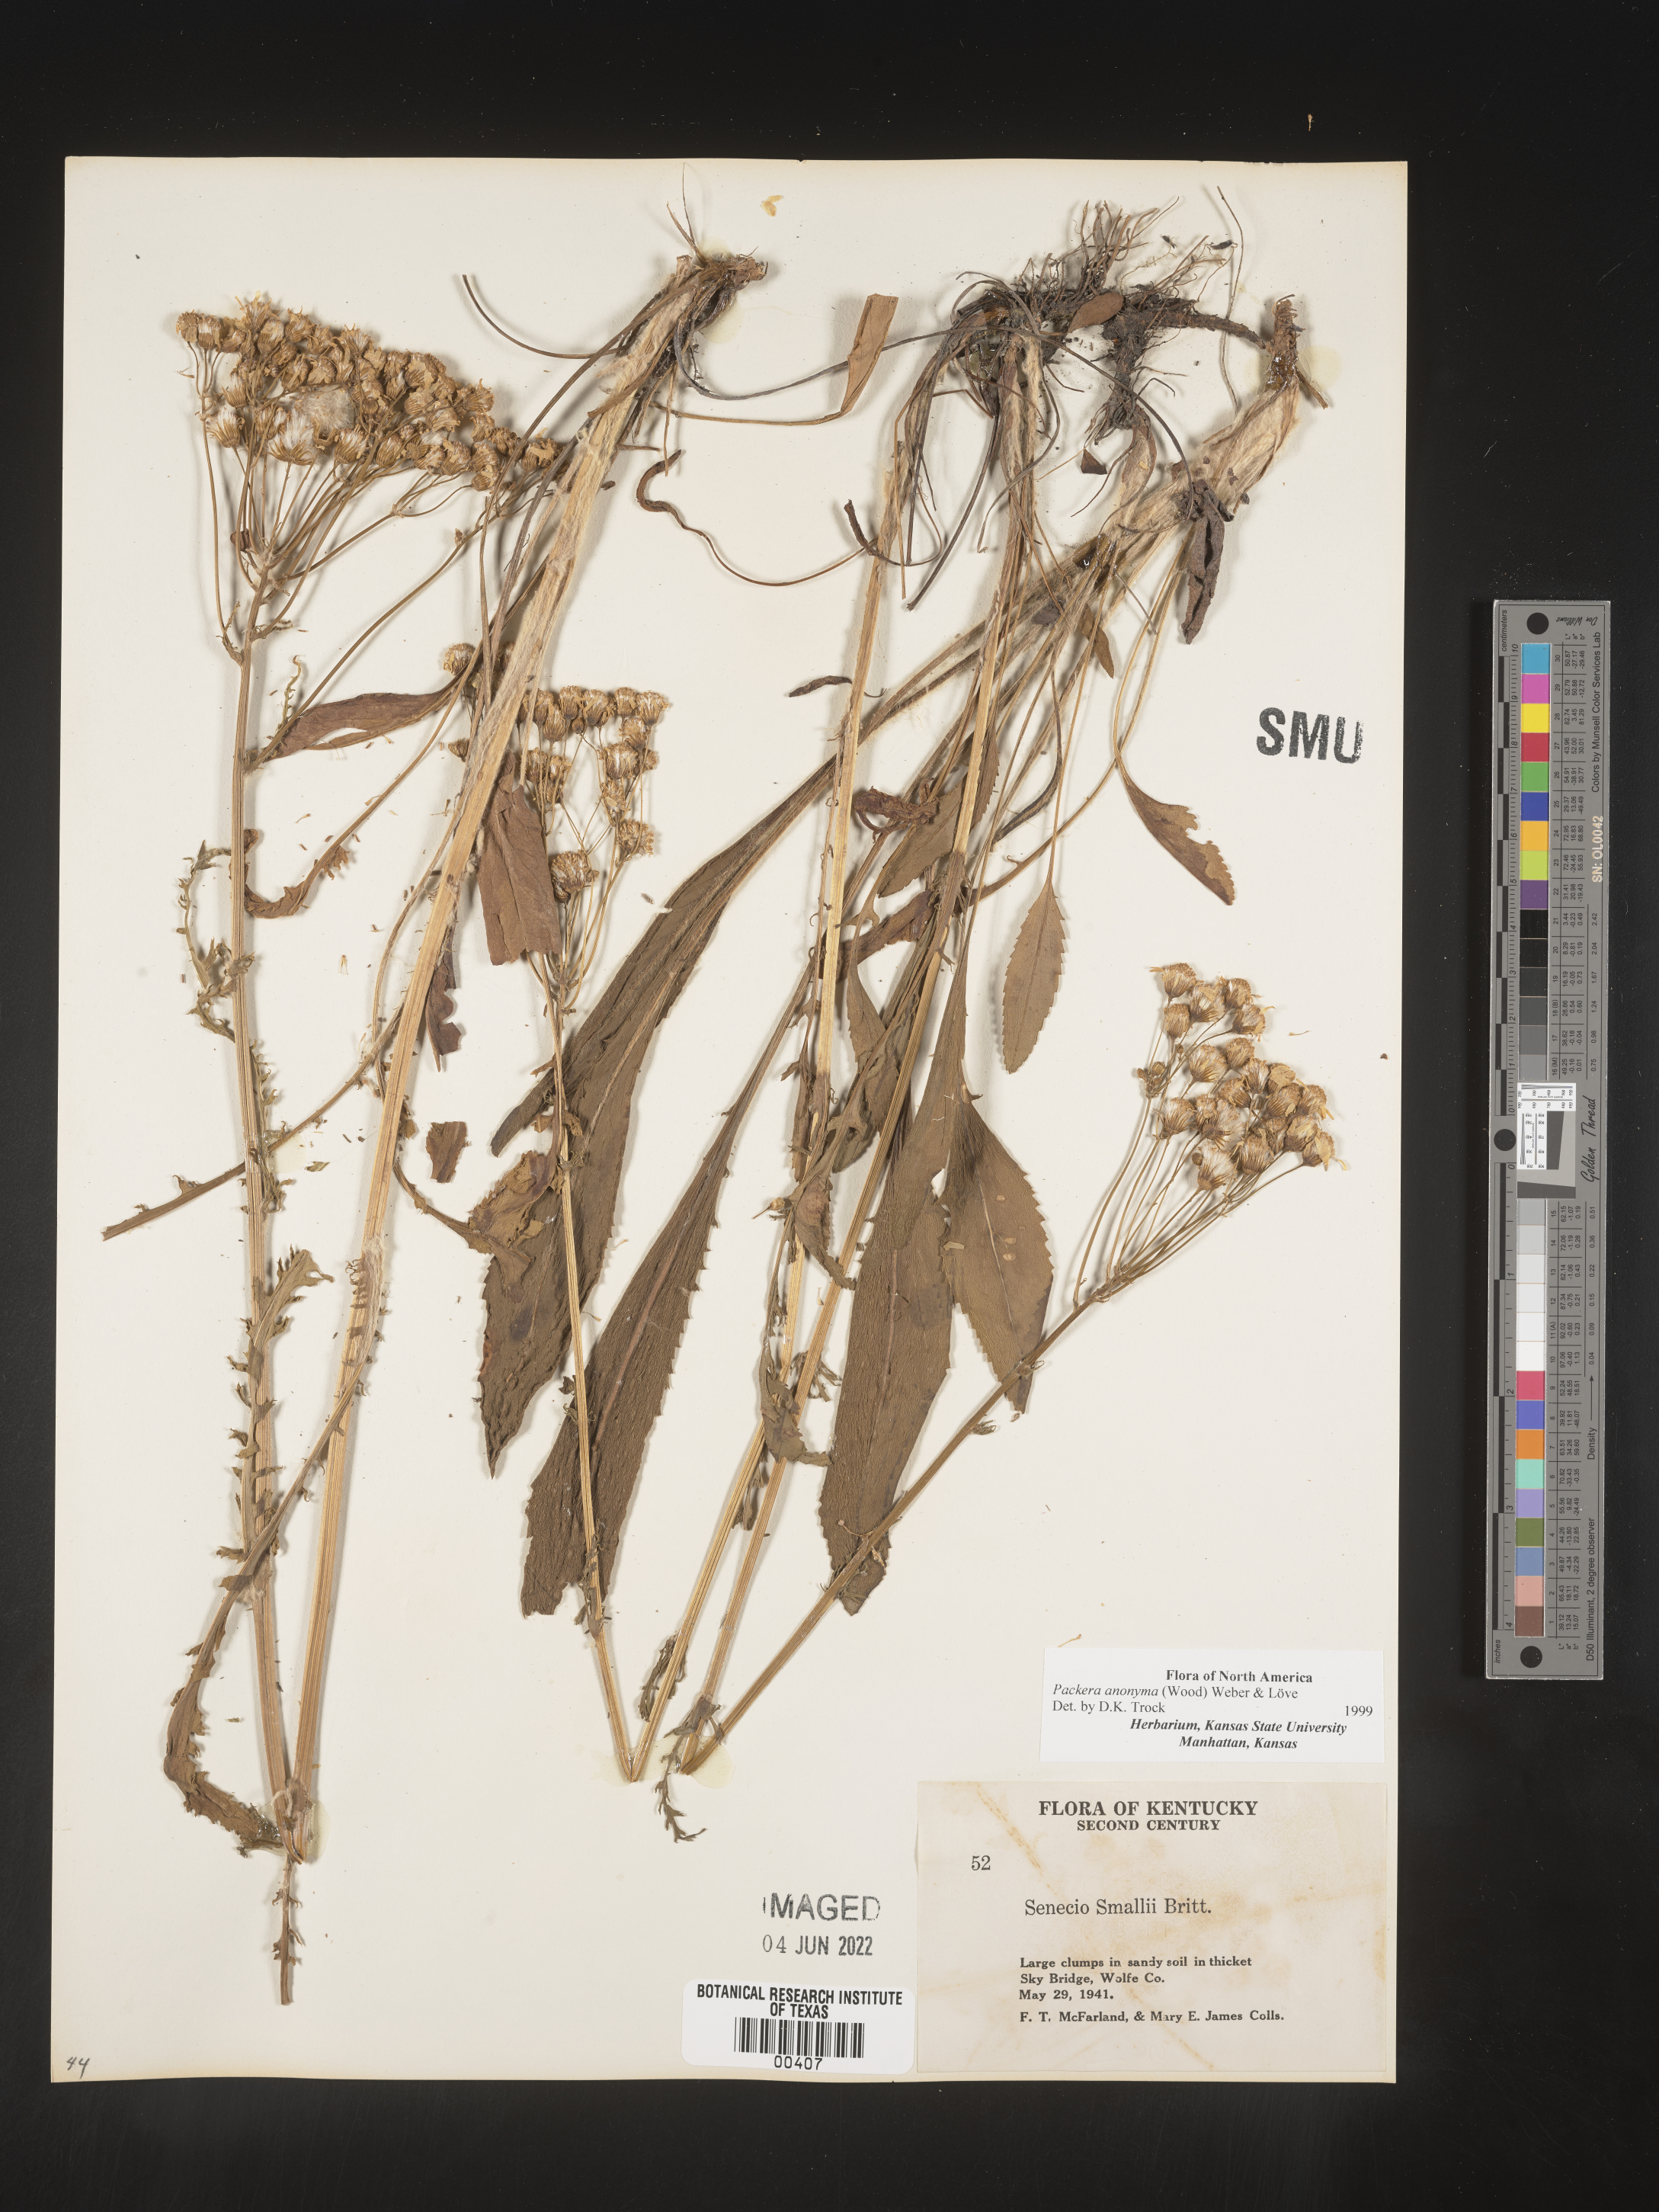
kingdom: Plantae
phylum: Tracheophyta
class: Magnoliopsida
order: Asterales
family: Asteraceae
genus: Packera
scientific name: Packera anonyma
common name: Small ragwort
